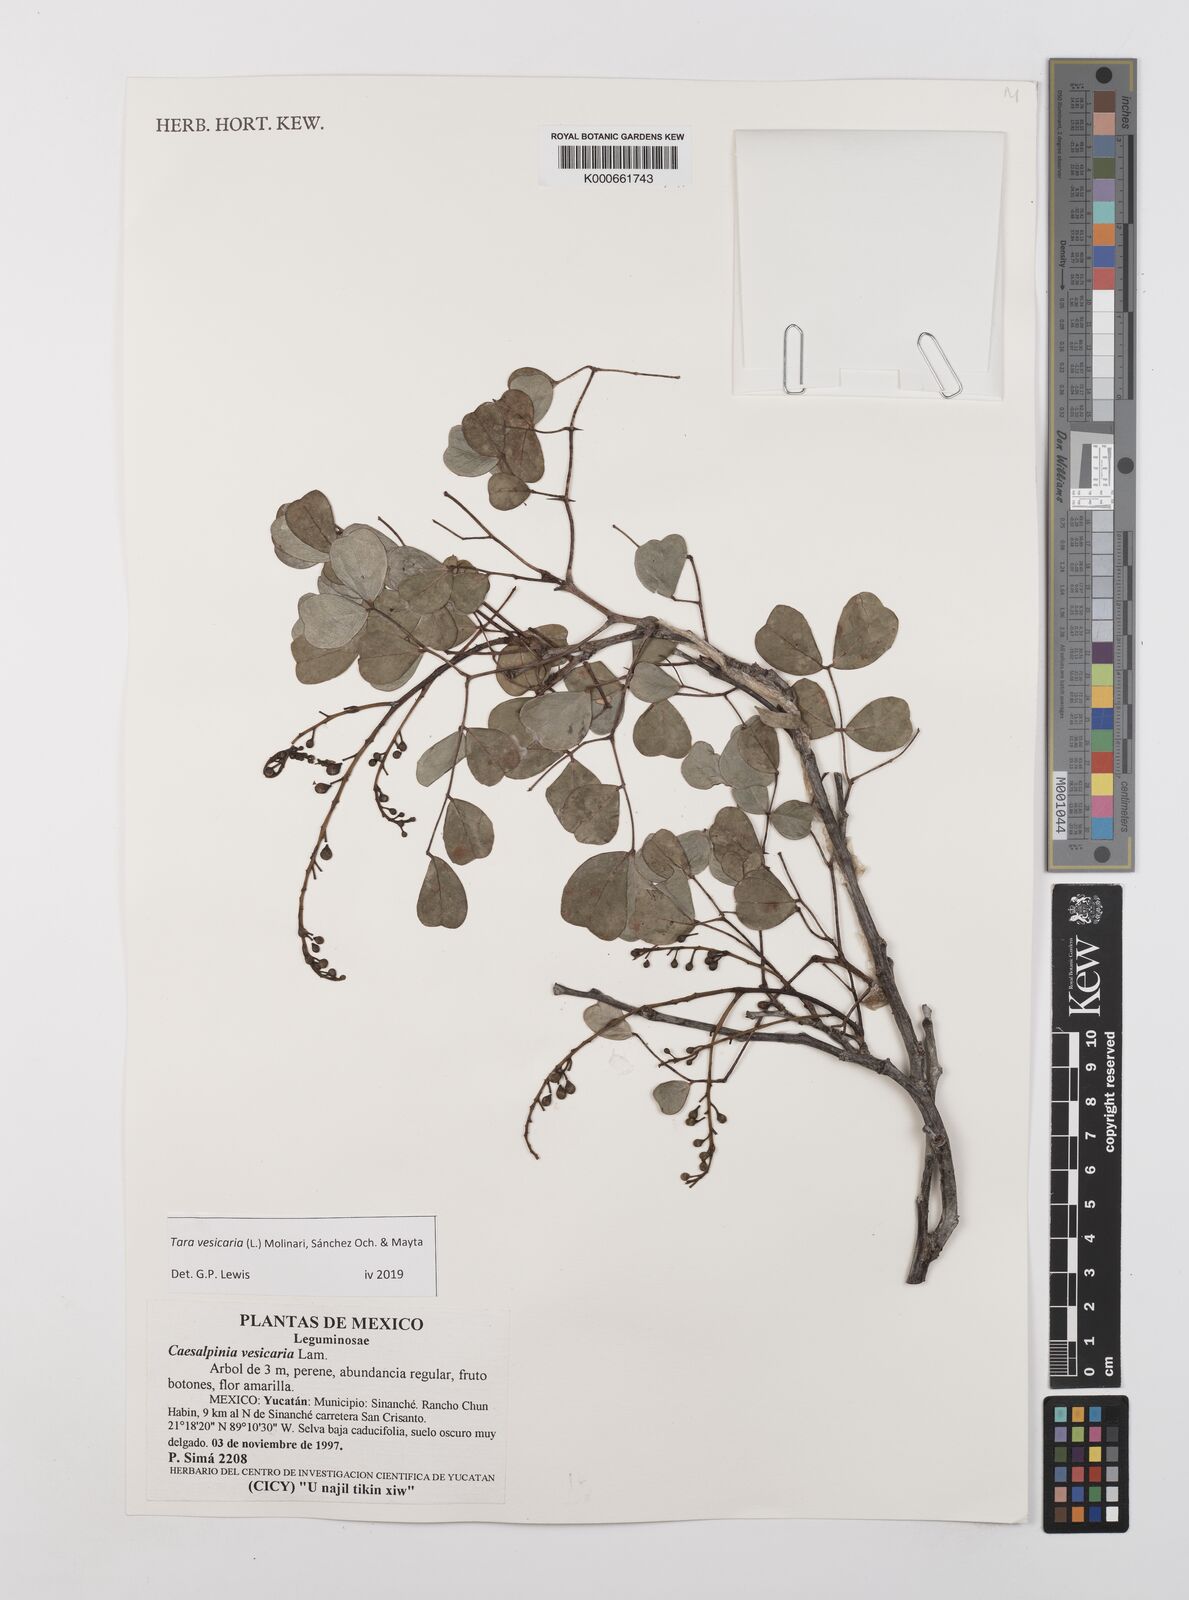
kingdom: Plantae
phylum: Tracheophyta
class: Magnoliopsida
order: Fabales
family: Fabaceae
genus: Tara
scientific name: Tara vesicaria
